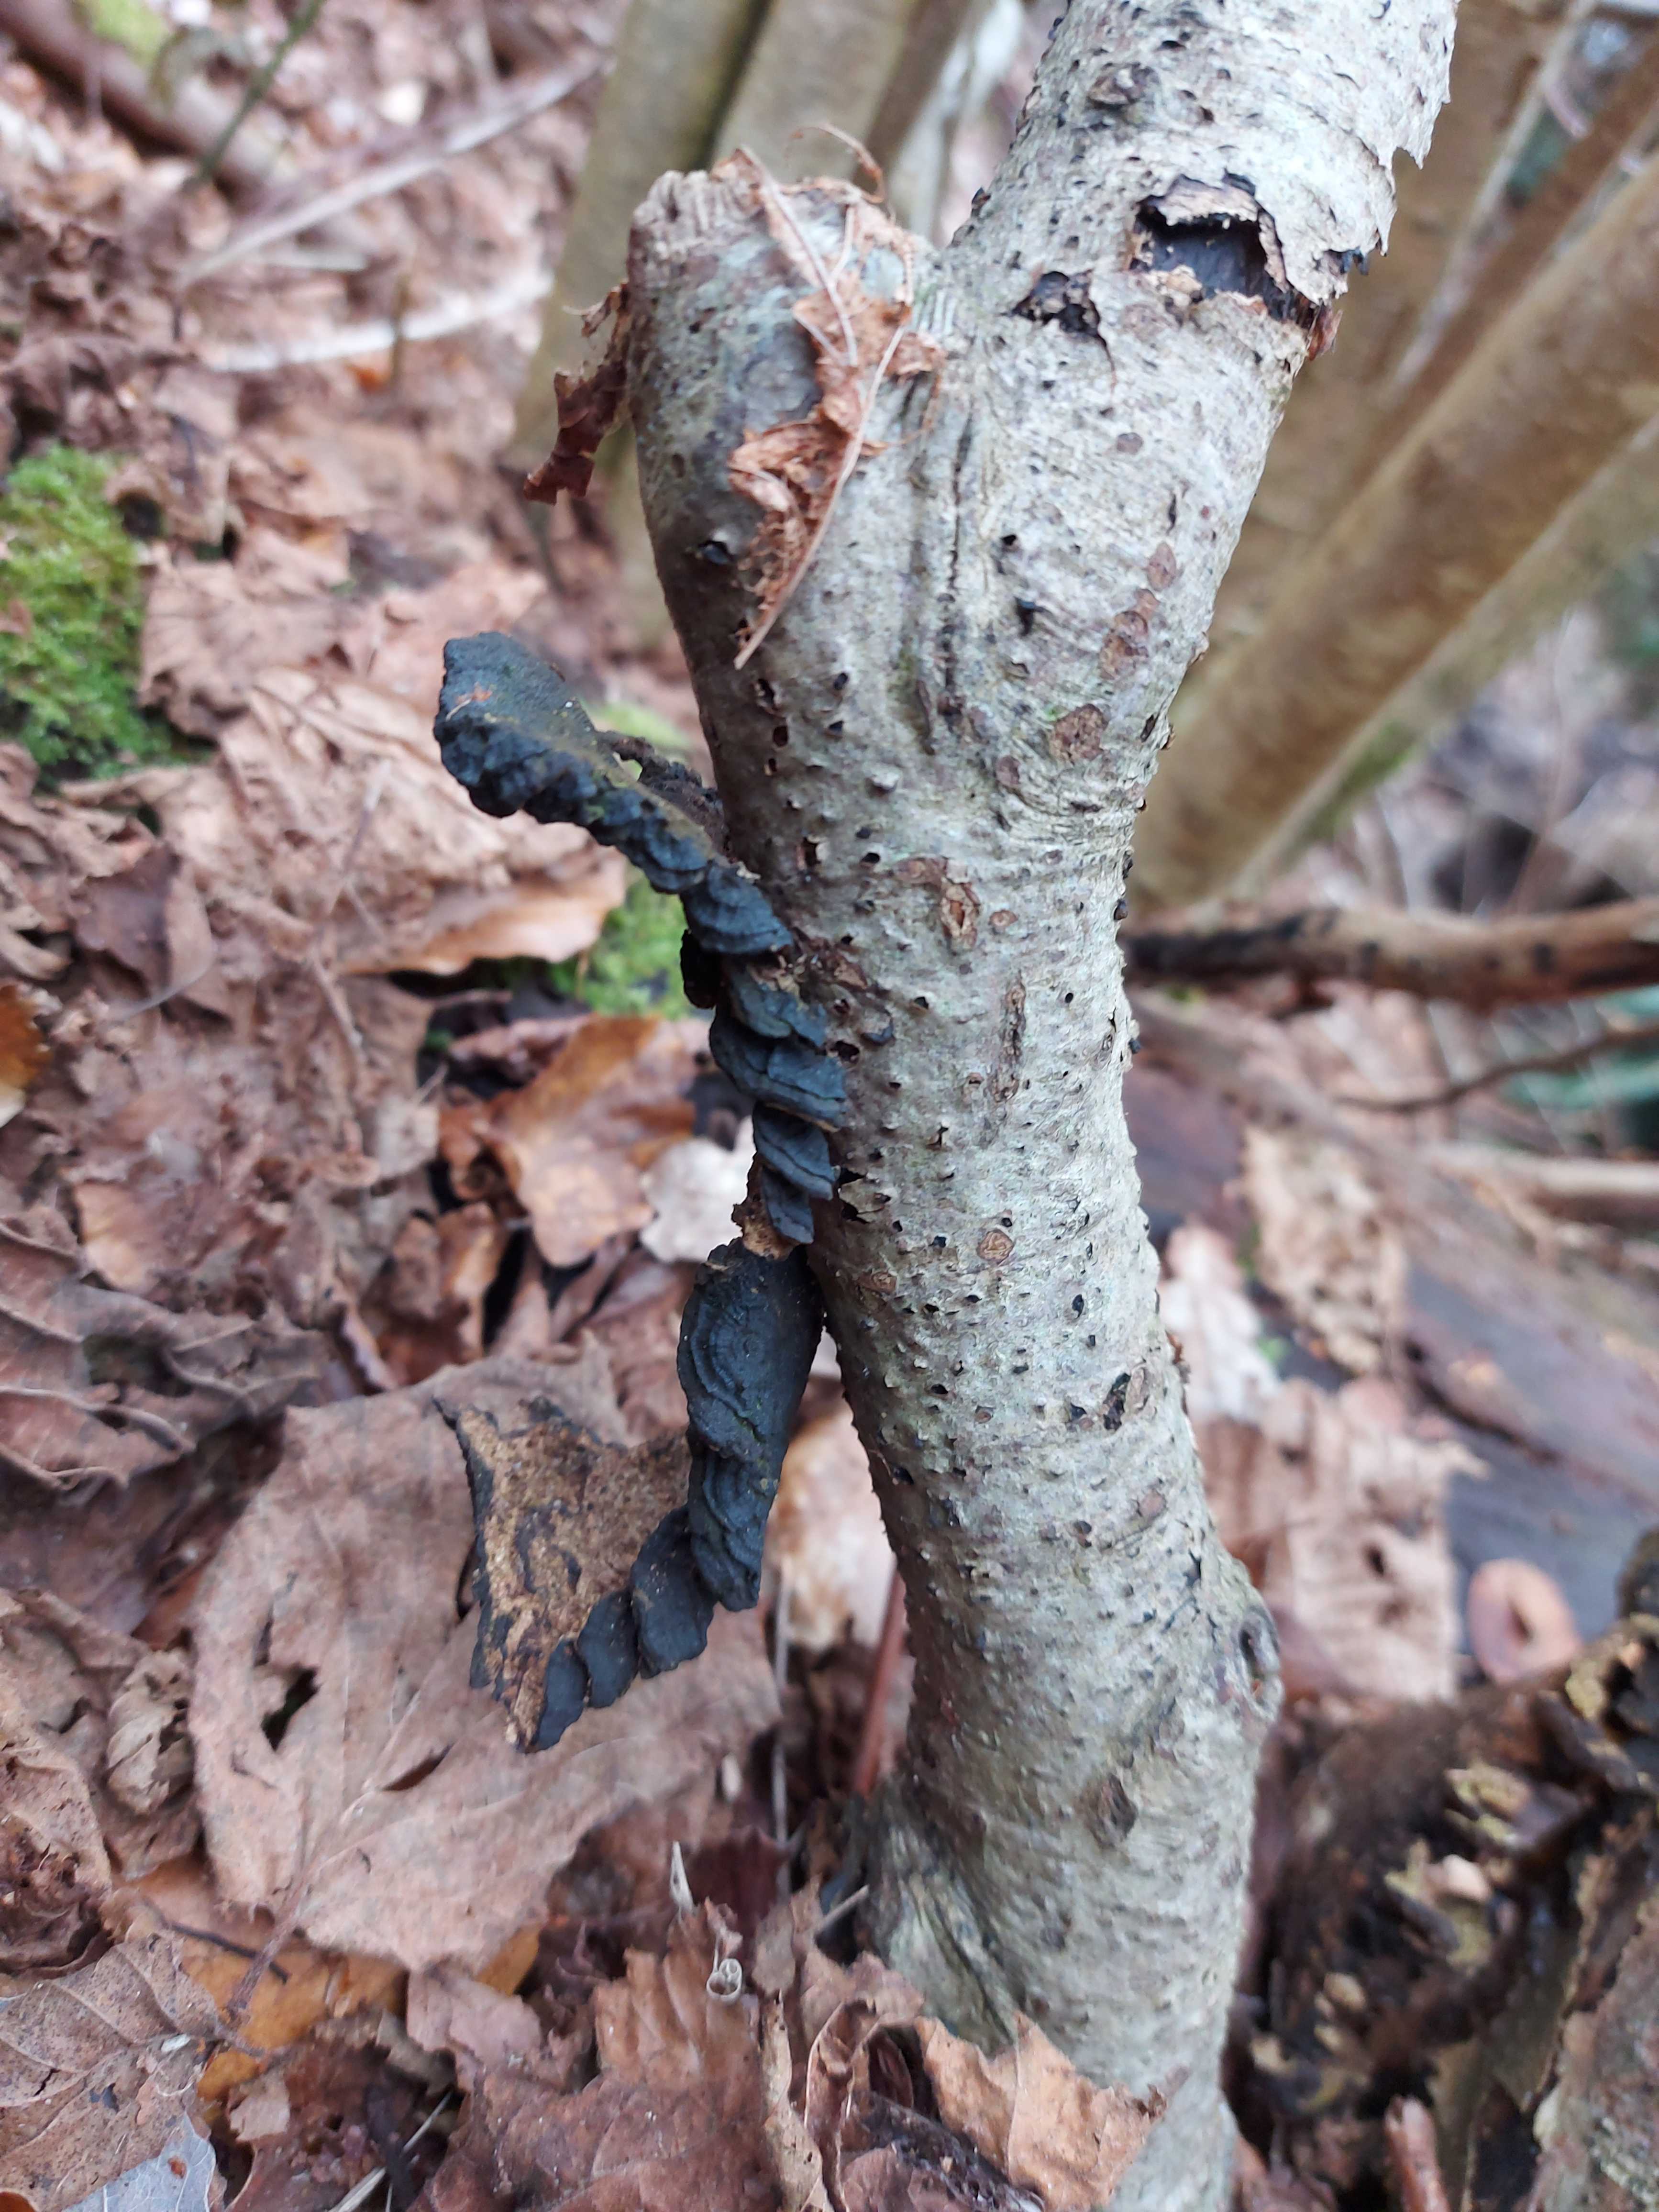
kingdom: Fungi
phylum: Basidiomycota
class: Agaricomycetes
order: Polyporales
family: Polyporaceae
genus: Podofomes
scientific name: Podofomes mollis
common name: blød begporesvamp
